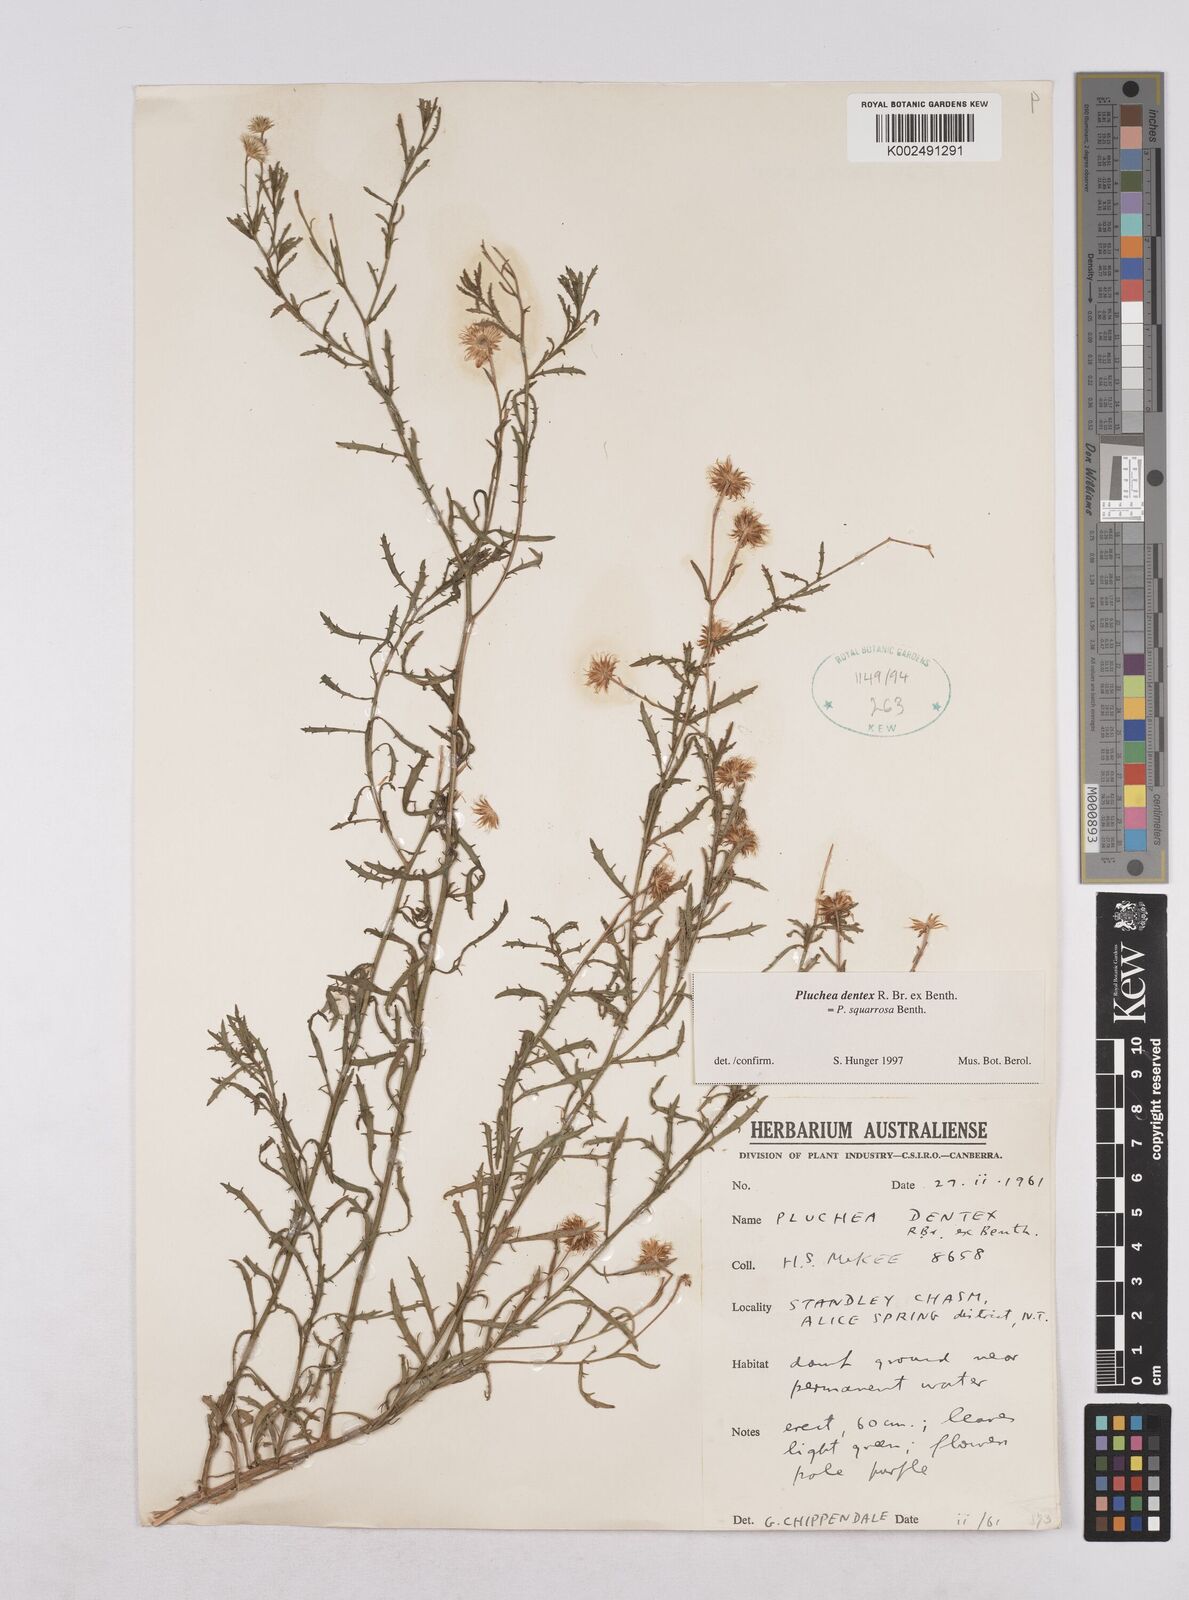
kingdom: Plantae
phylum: Tracheophyta
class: Magnoliopsida
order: Asterales
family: Asteraceae
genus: Pluchea
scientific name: Pluchea dentex
